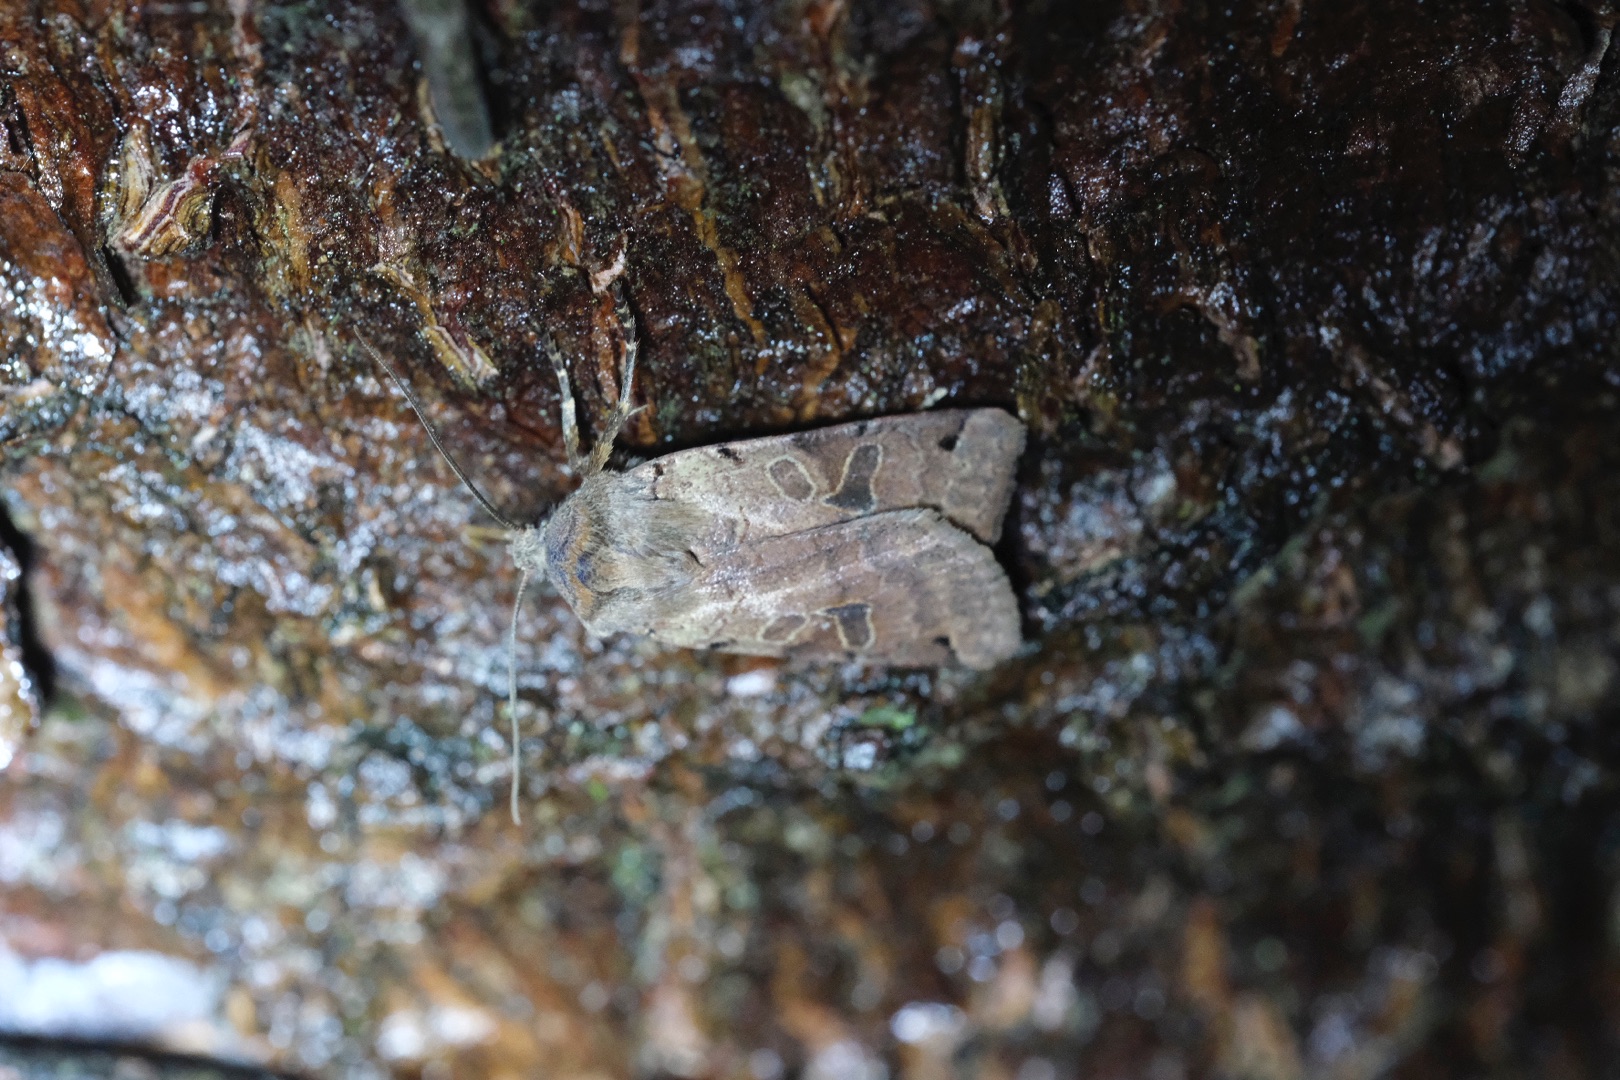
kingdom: Animalia
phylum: Arthropoda
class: Insecta
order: Lepidoptera
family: Noctuidae
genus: Agrochola
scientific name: Agrochola litura
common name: Kantplettet jordfarveugle
